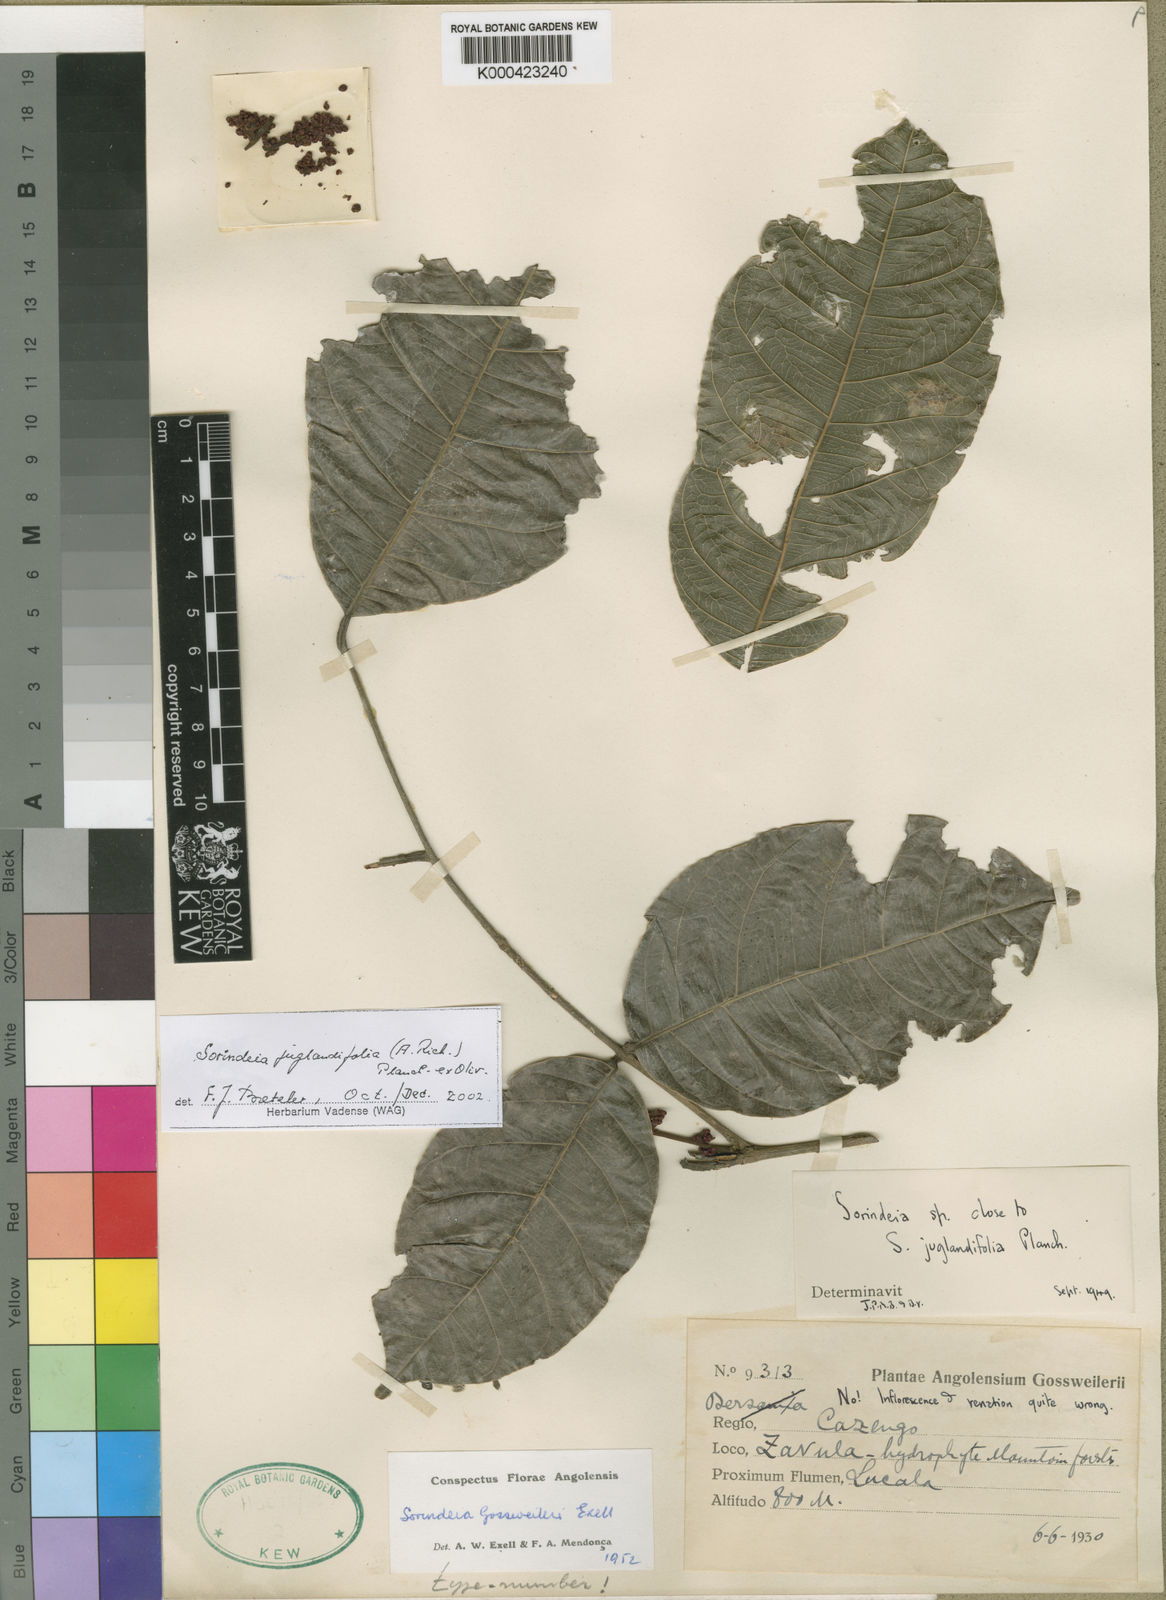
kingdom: Plantae
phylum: Tracheophyta
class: Magnoliopsida
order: Sapindales
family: Anacardiaceae
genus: Sorindeia
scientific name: Sorindeia juglandifolia
